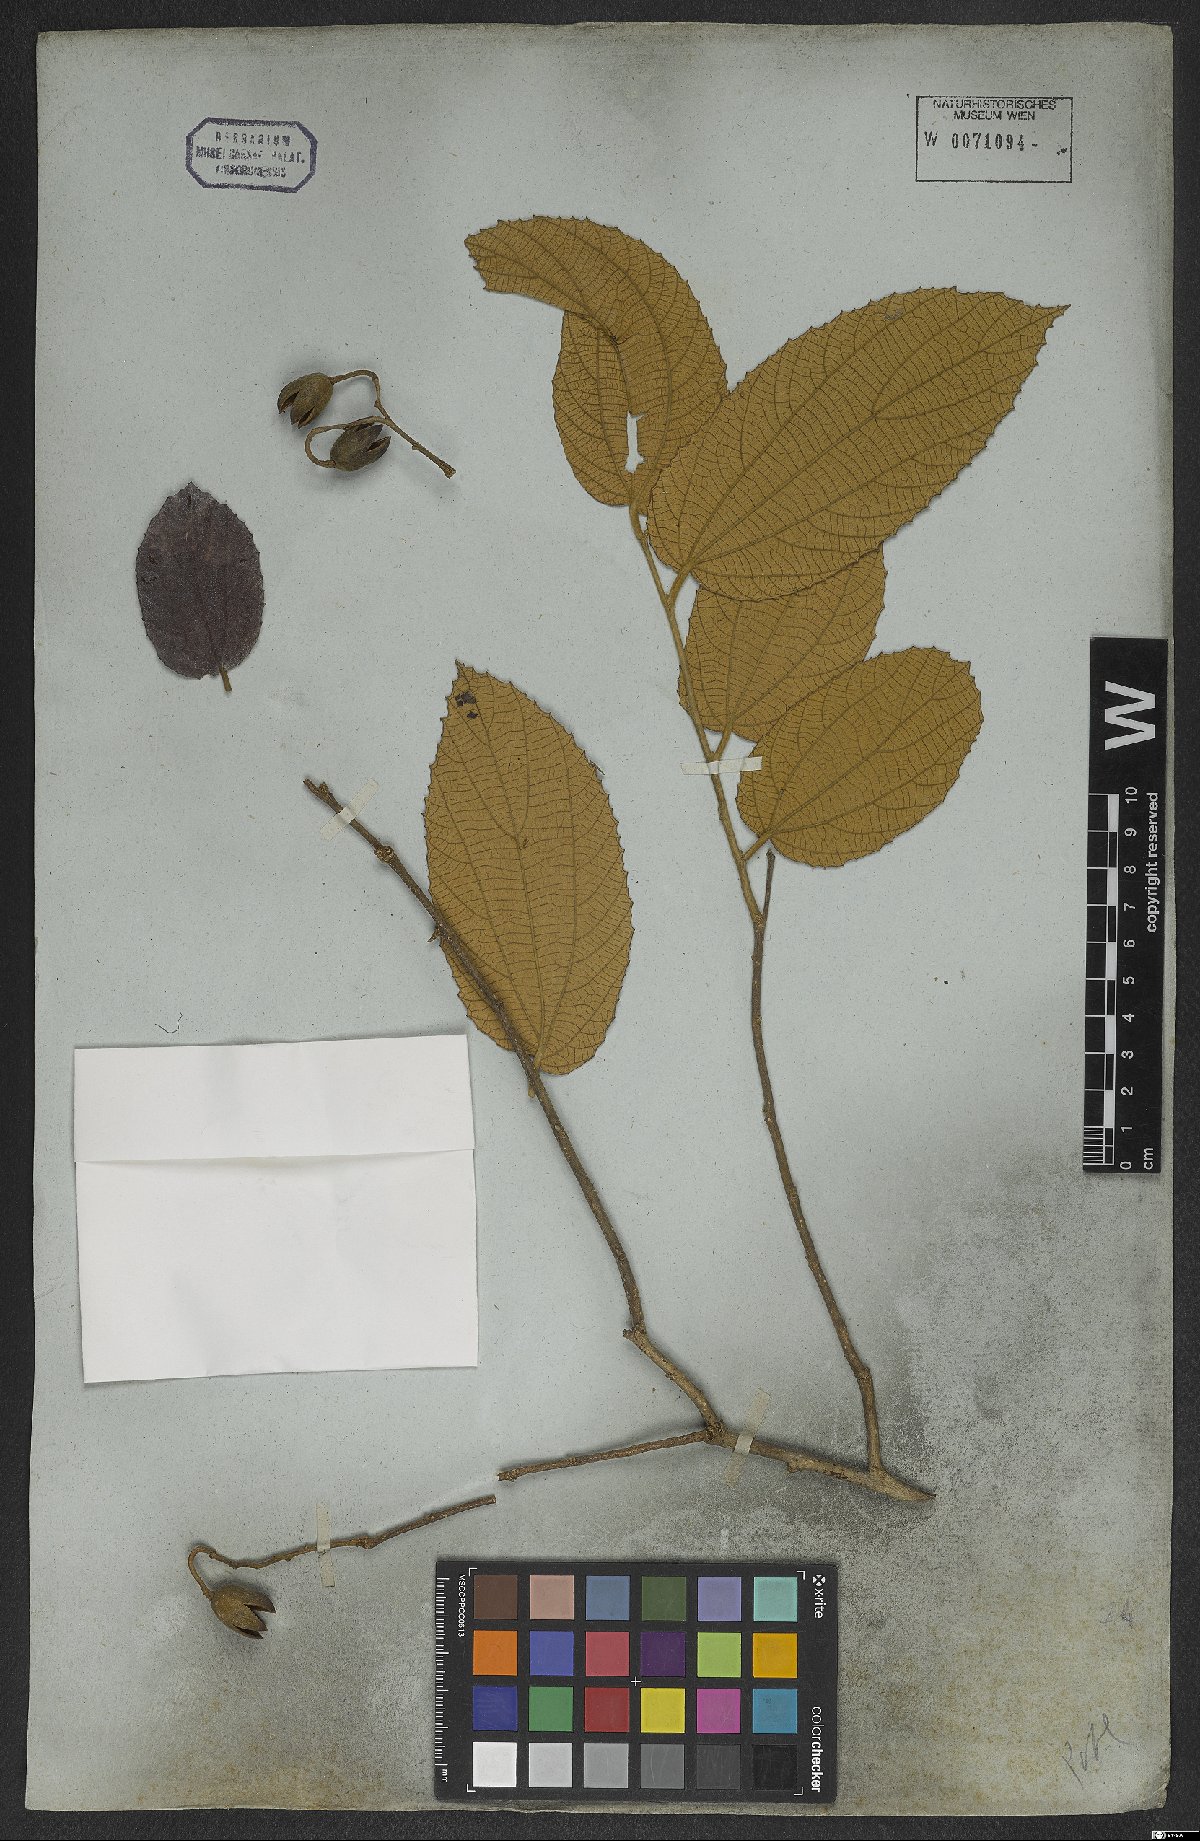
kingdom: Plantae
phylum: Tracheophyta
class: Magnoliopsida
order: Malvales
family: Malvaceae
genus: Luehea
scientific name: Luehea divaricata
